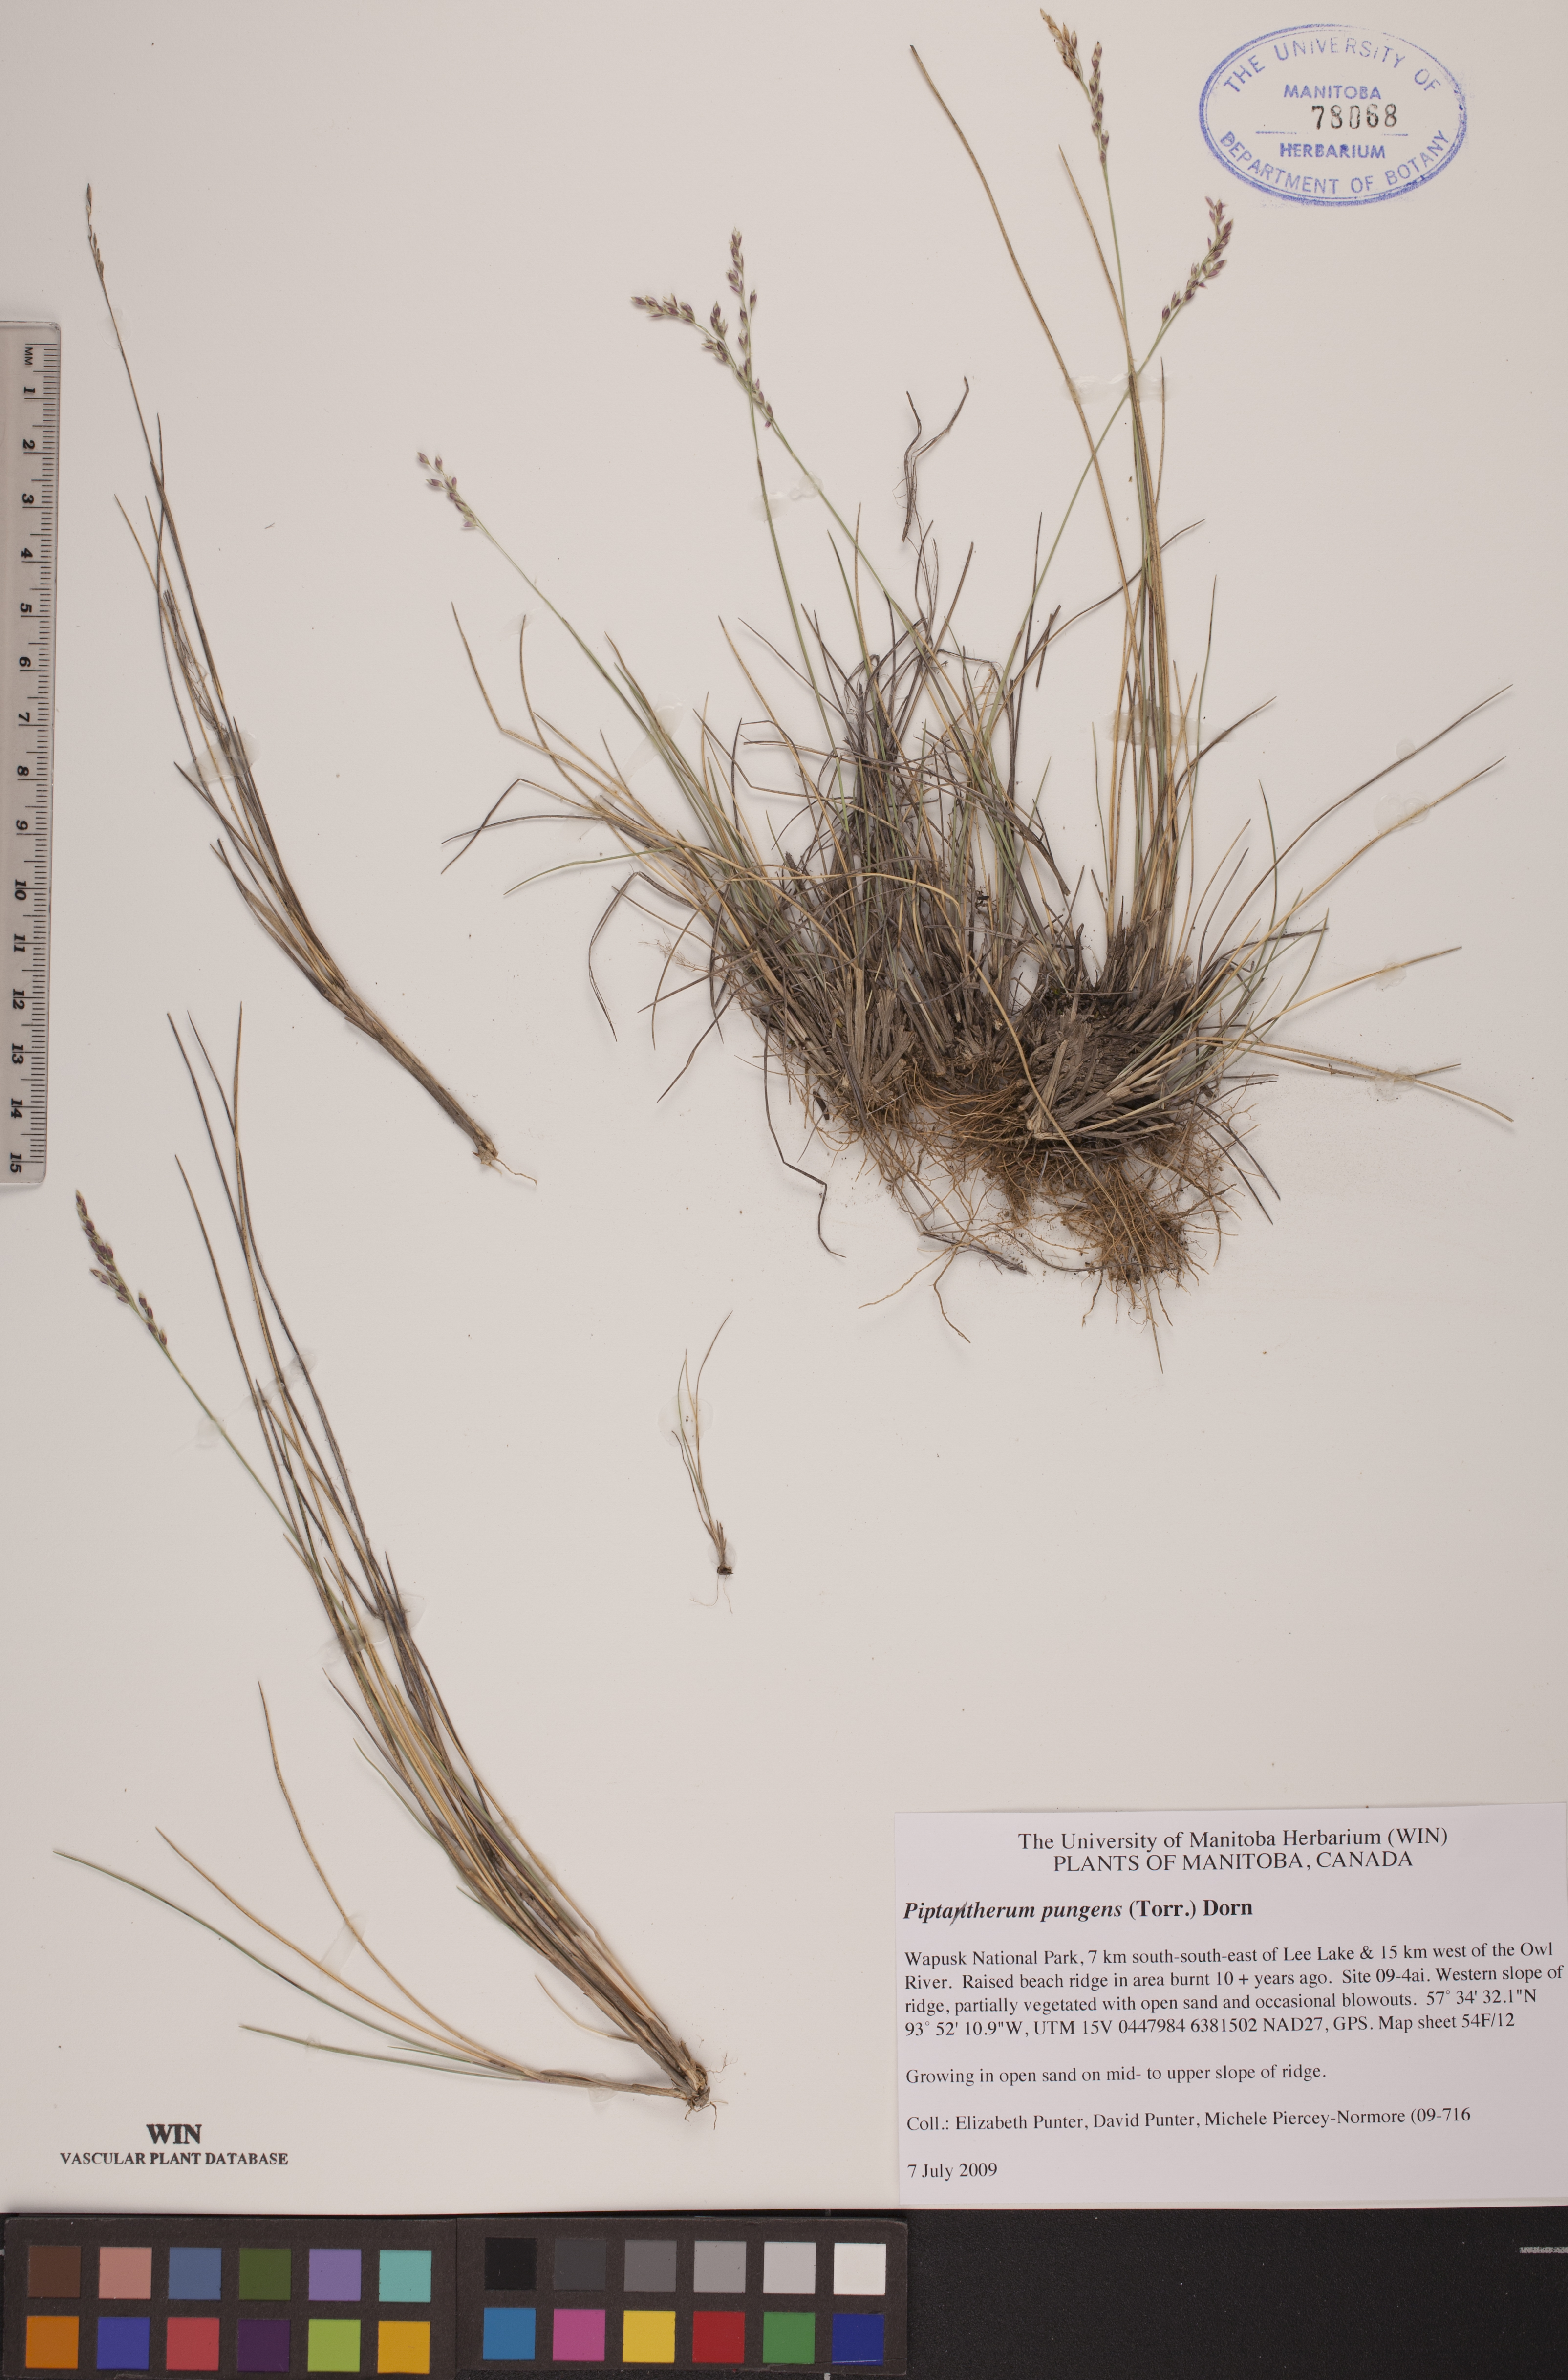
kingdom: Plantae
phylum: Tracheophyta
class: Liliopsida
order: Poales
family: Poaceae
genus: Piptatheropsis
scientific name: Piptatheropsis pungens
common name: Northern ricegrass
